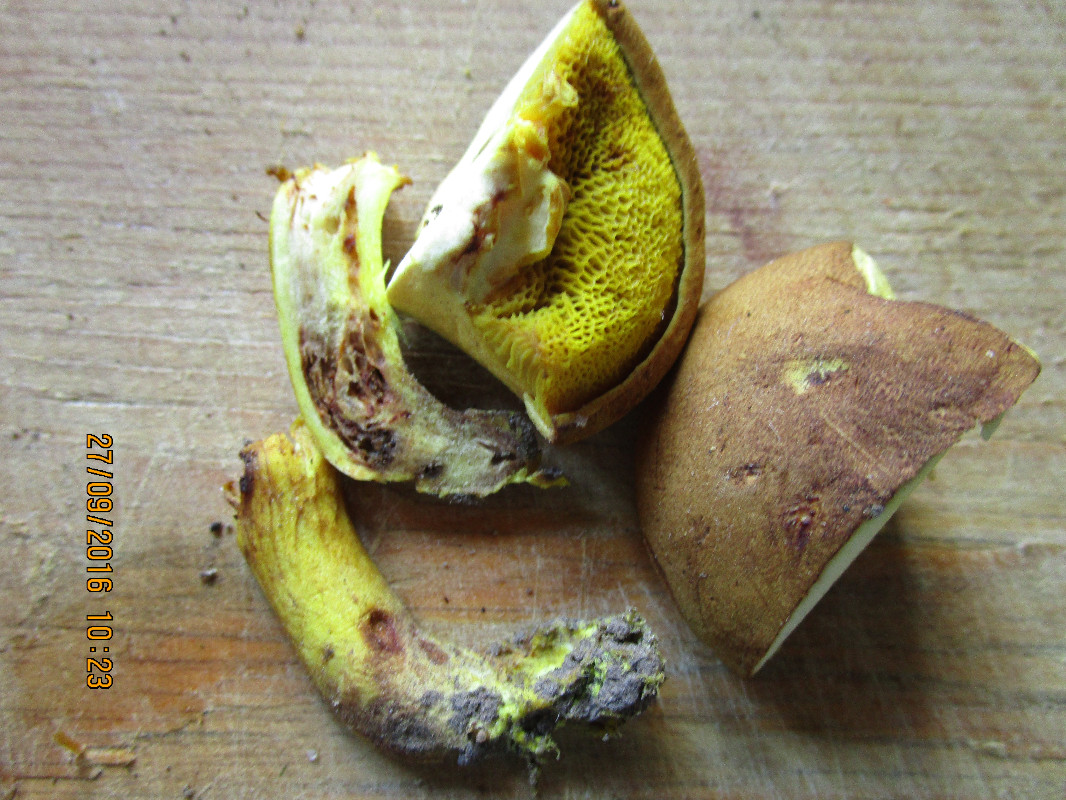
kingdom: Fungi
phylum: Basidiomycota
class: Agaricomycetes
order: Boletales
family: Boletaceae
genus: Xerocomus
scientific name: Xerocomus ferrugineus
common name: vaskeskinds-rørhat
